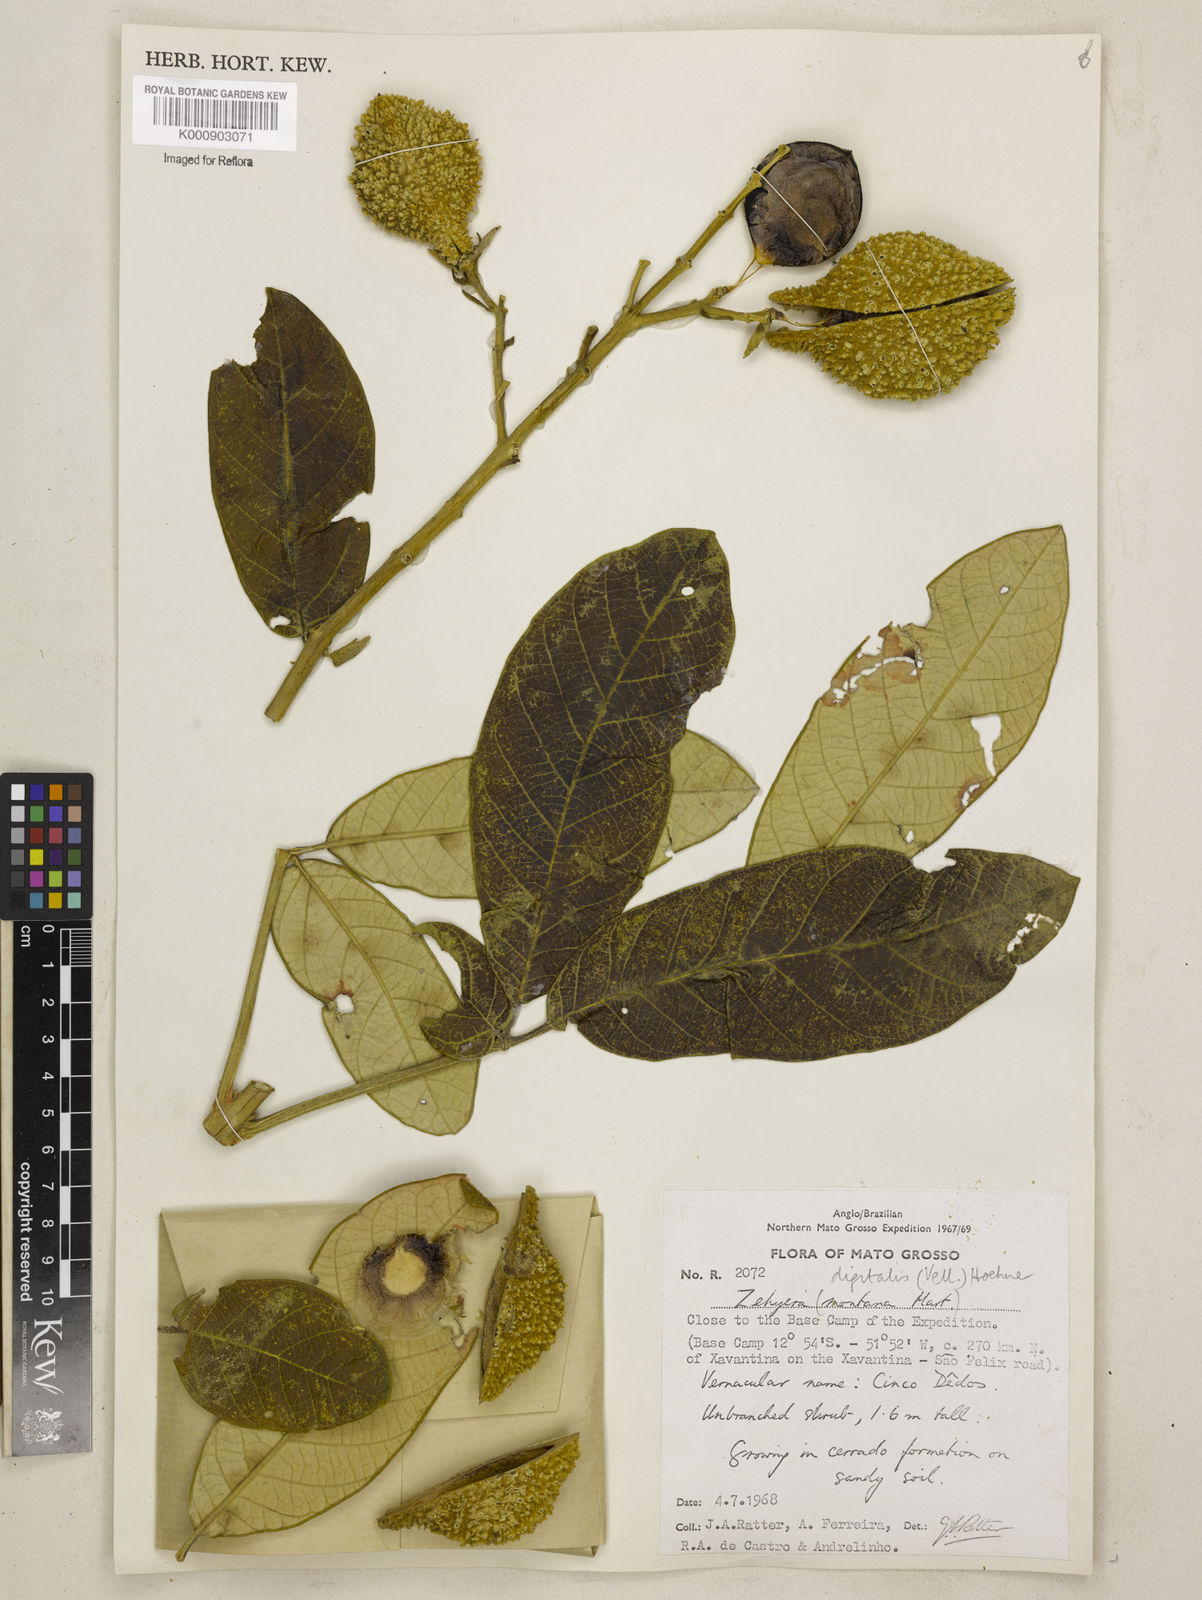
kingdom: Plantae
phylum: Tracheophyta
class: Magnoliopsida
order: Lamiales
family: Bignoniaceae
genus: Zeyheria
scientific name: Zeyheria
